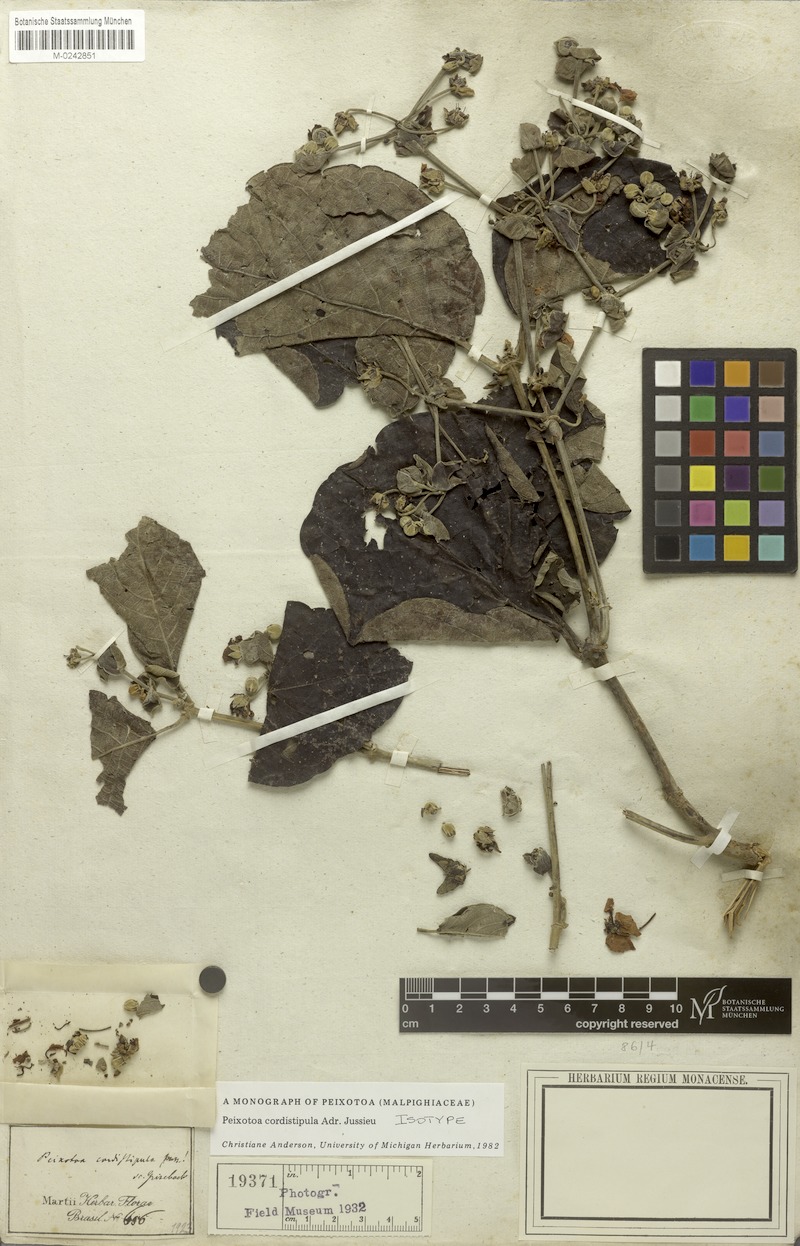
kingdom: Plantae
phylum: Tracheophyta
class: Magnoliopsida
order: Malpighiales
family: Malpighiaceae
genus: Peixotoa
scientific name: Peixotoa cordistipula
